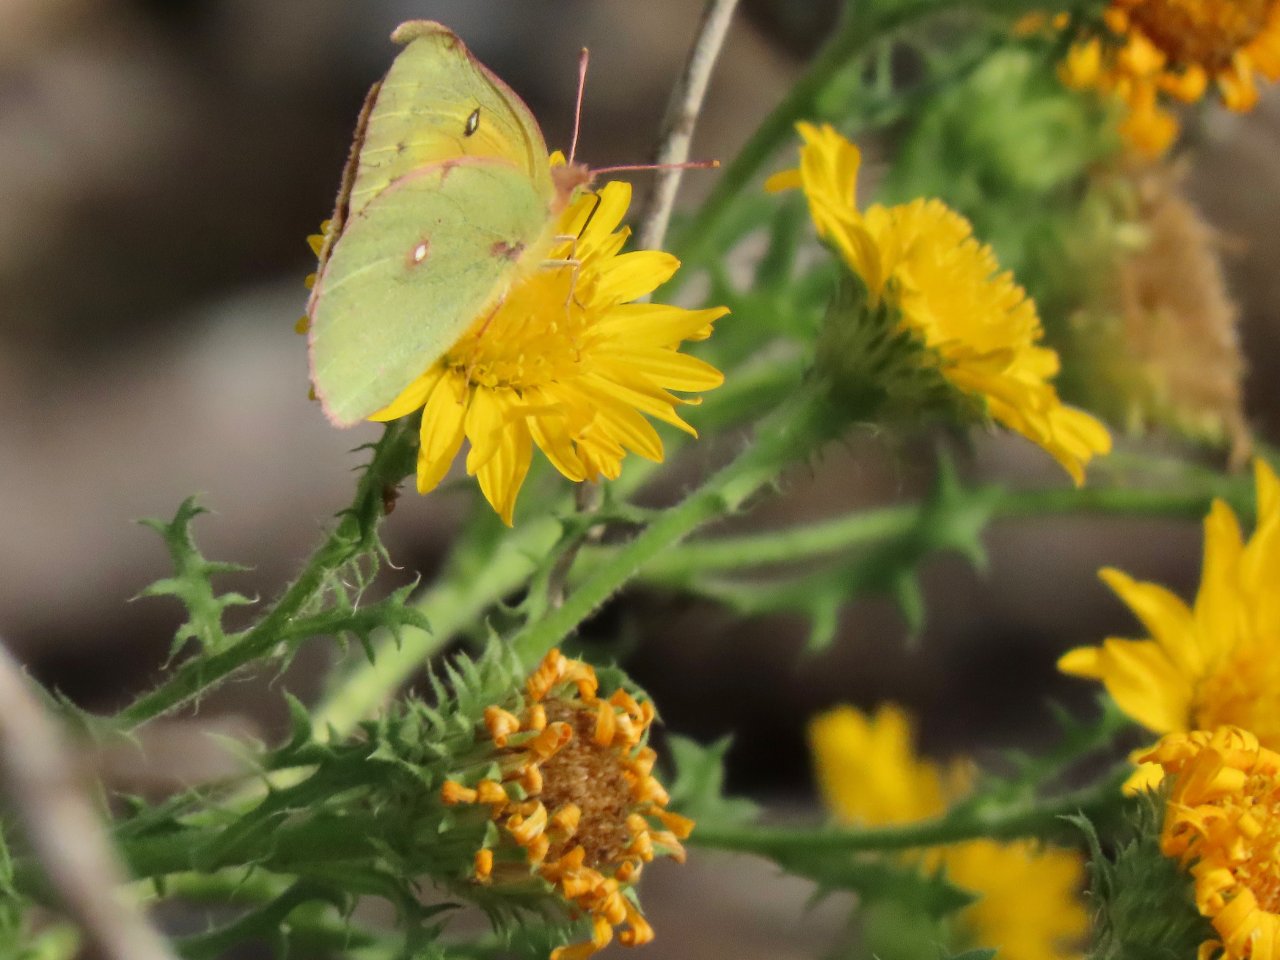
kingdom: Animalia
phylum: Arthropoda
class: Insecta
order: Lepidoptera
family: Pieridae
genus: Colias
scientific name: Colias eurytheme
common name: Orange Sulphur
